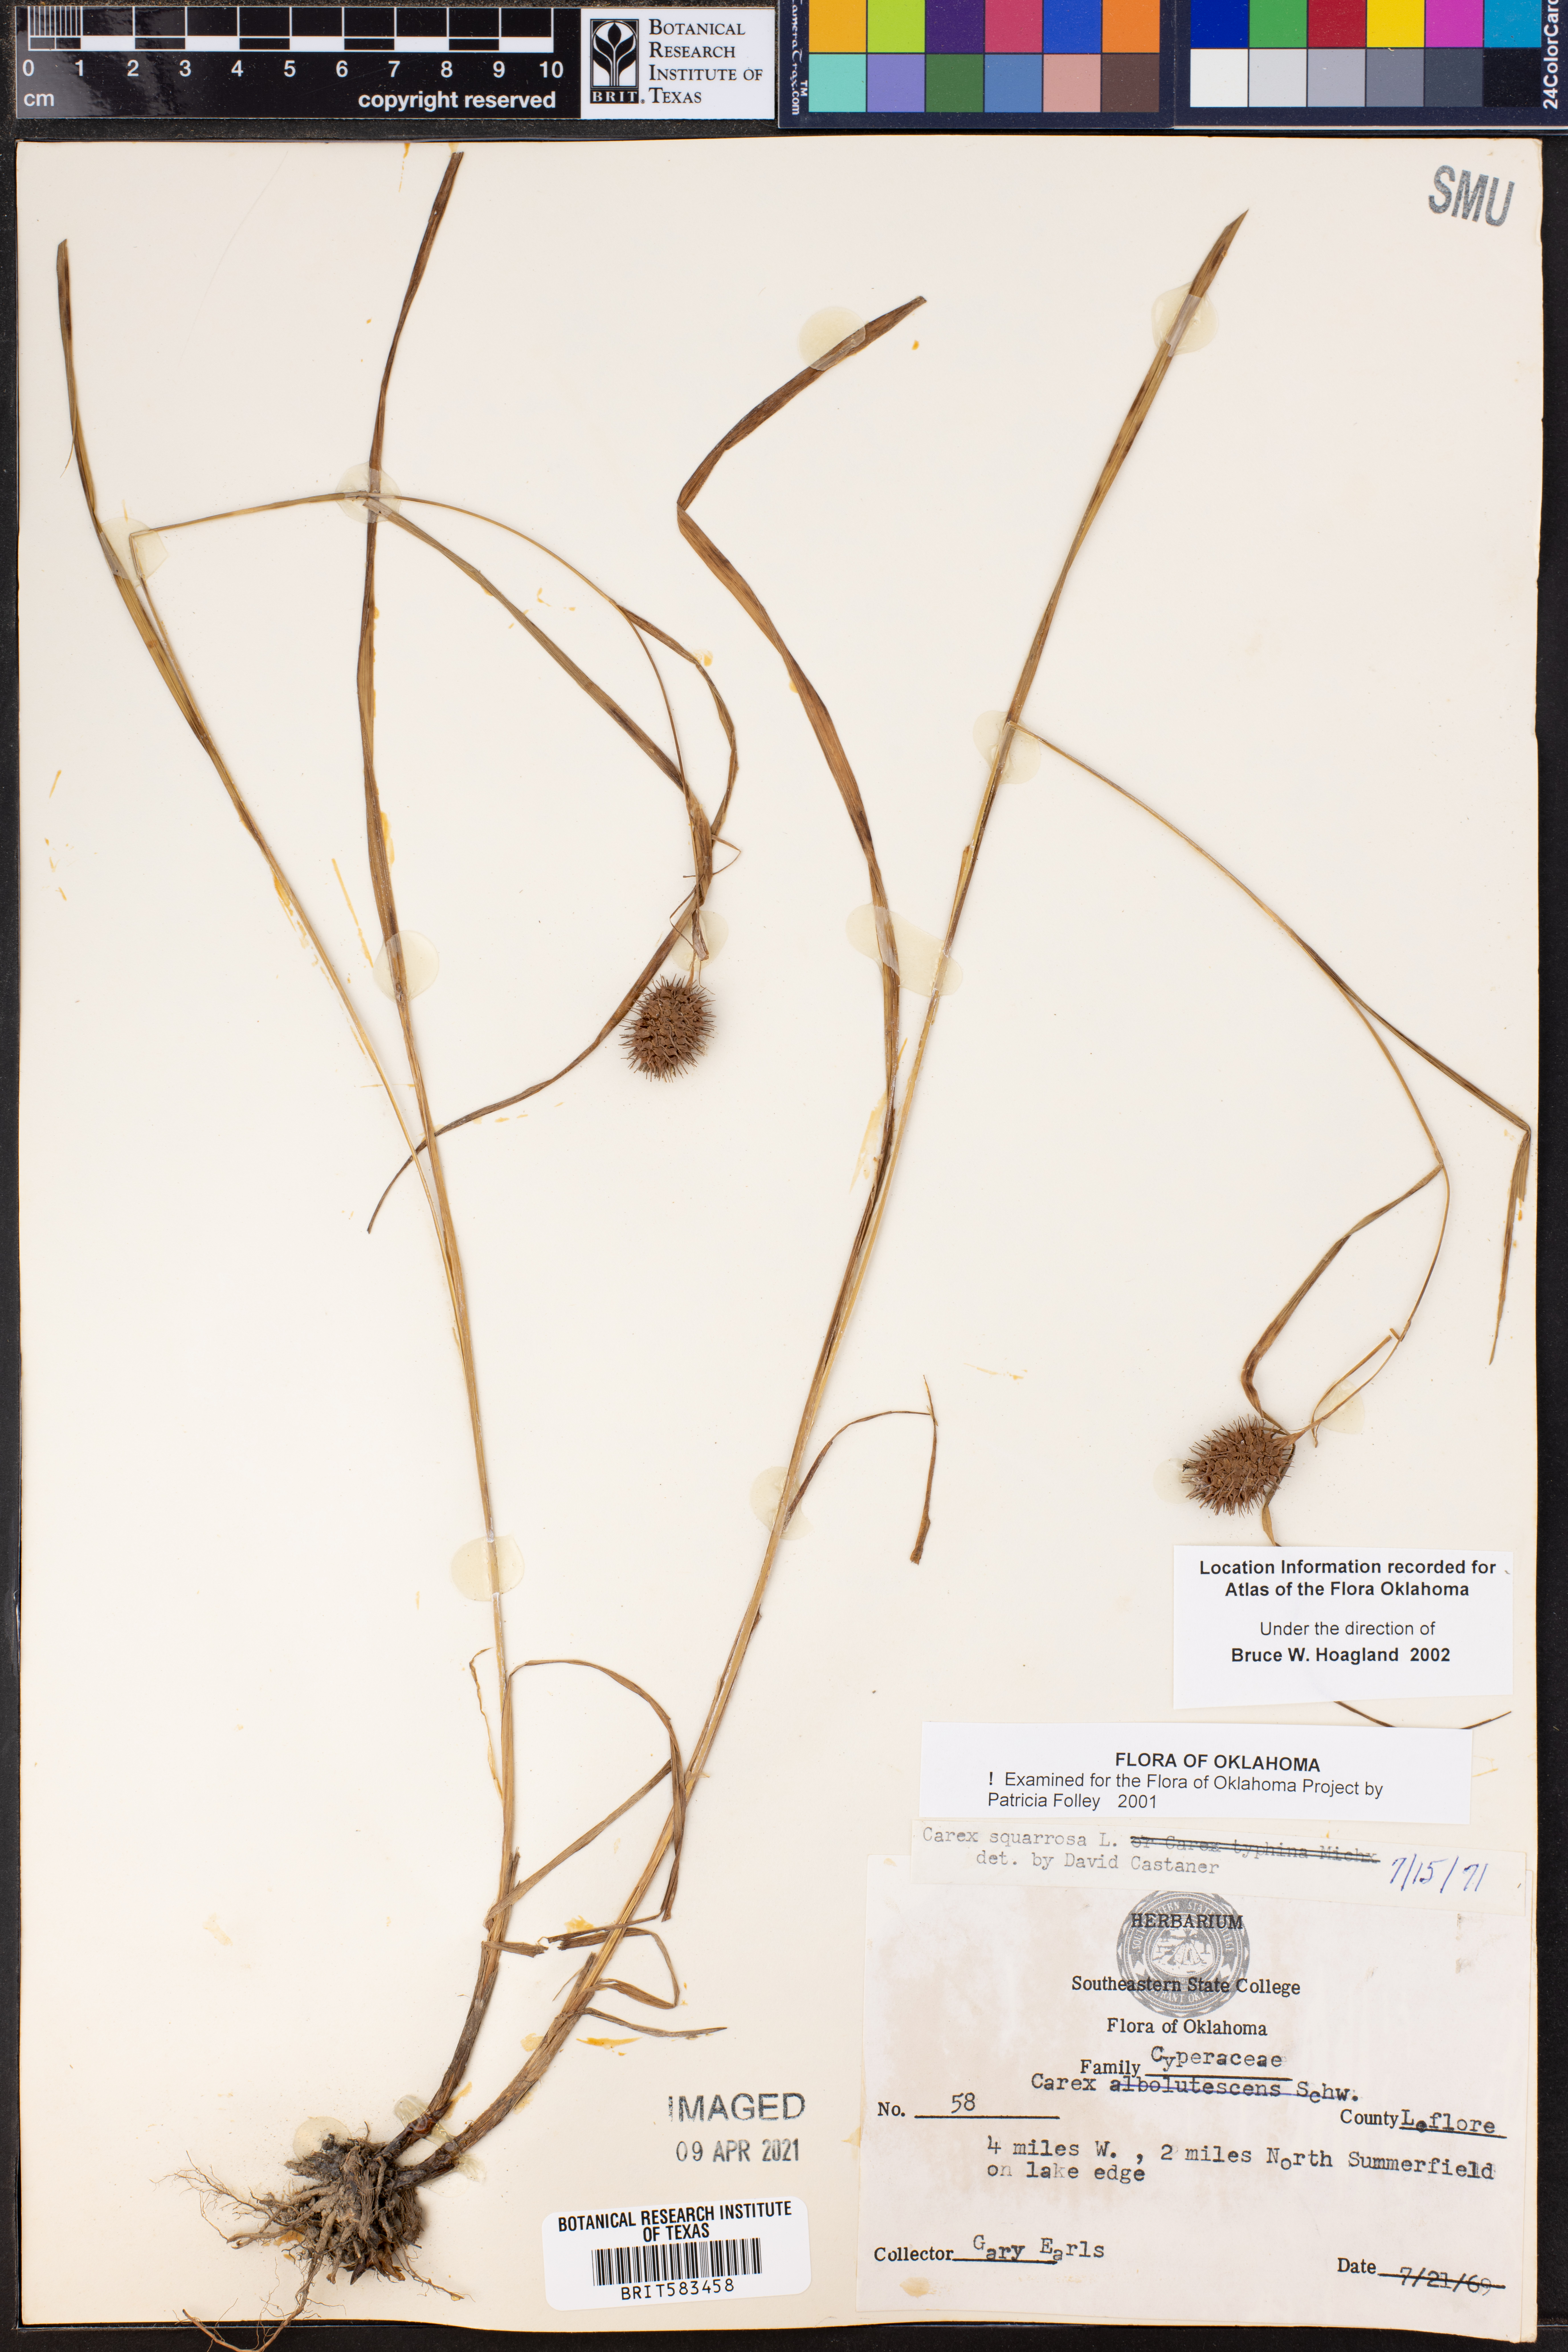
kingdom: Plantae
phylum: Tracheophyta
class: Liliopsida
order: Poales
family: Cyperaceae
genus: Carex
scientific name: Carex squarrosa
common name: Narrow-leaved cattail sedge
